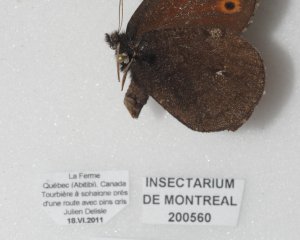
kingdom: Animalia
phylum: Arthropoda
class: Insecta
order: Lepidoptera
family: Nymphalidae
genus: Erebia
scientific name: Erebia disa
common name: Taiga Alpine
